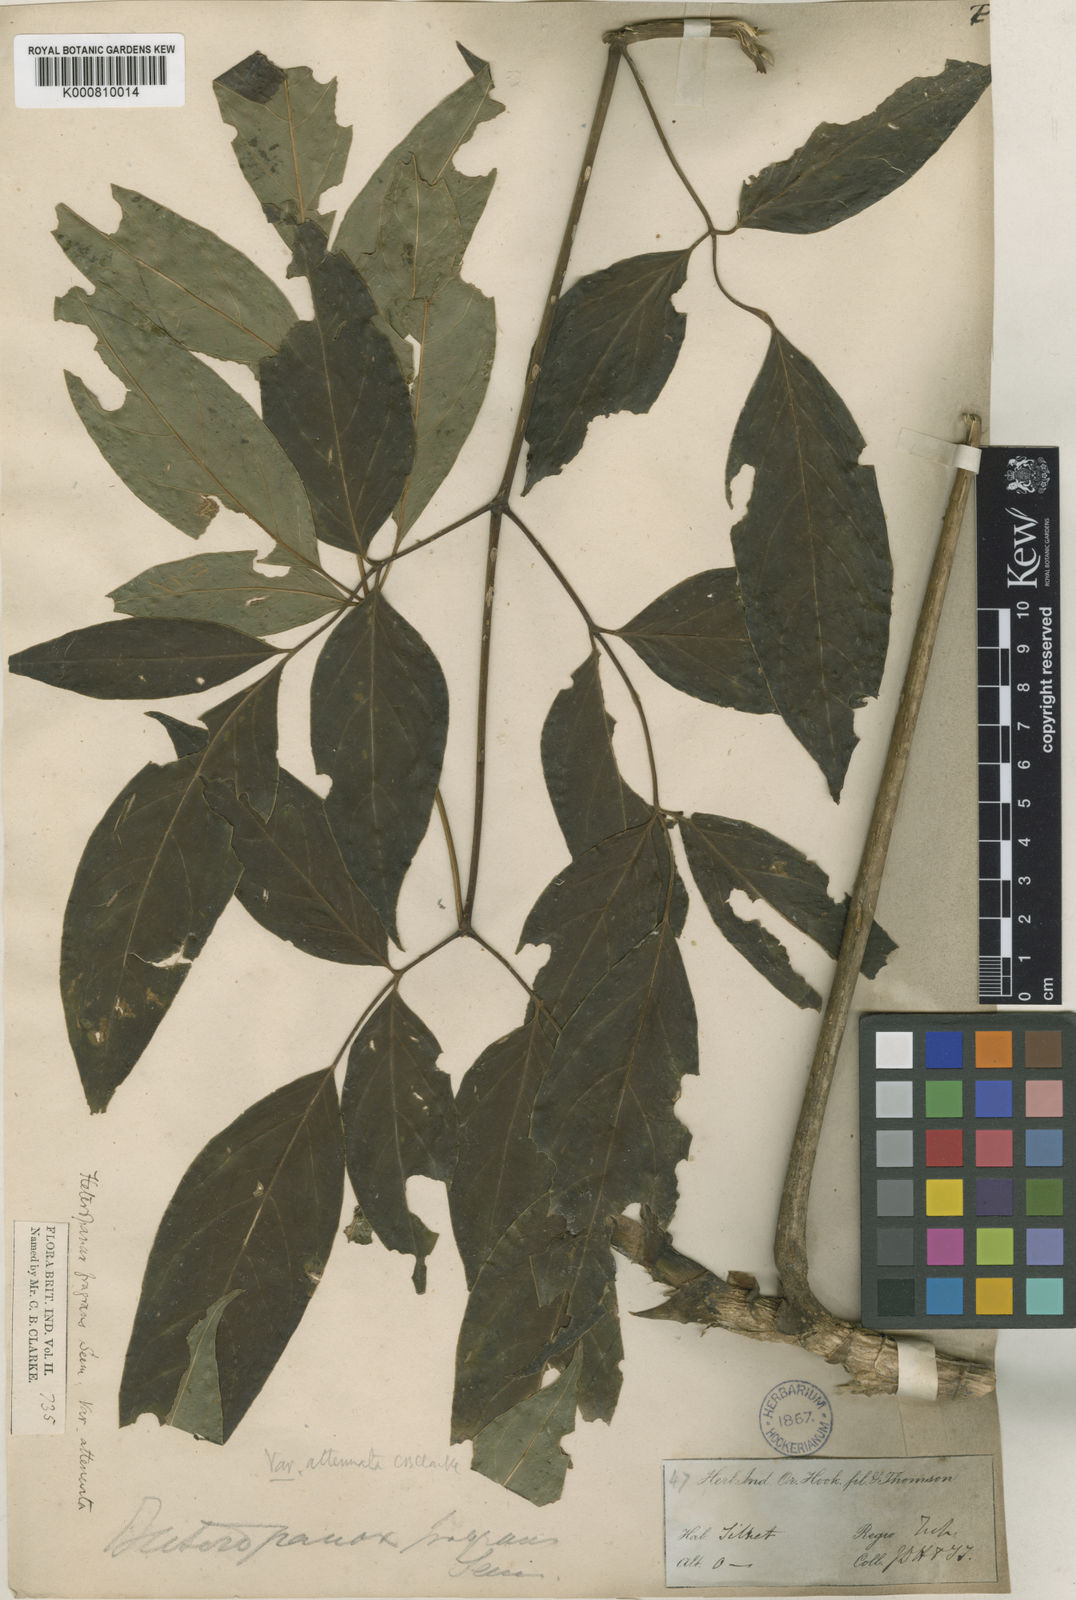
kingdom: Plantae
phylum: Tracheophyta
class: Magnoliopsida
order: Apiales
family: Araliaceae
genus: Heteropanax
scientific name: Heteropanax fragrans
